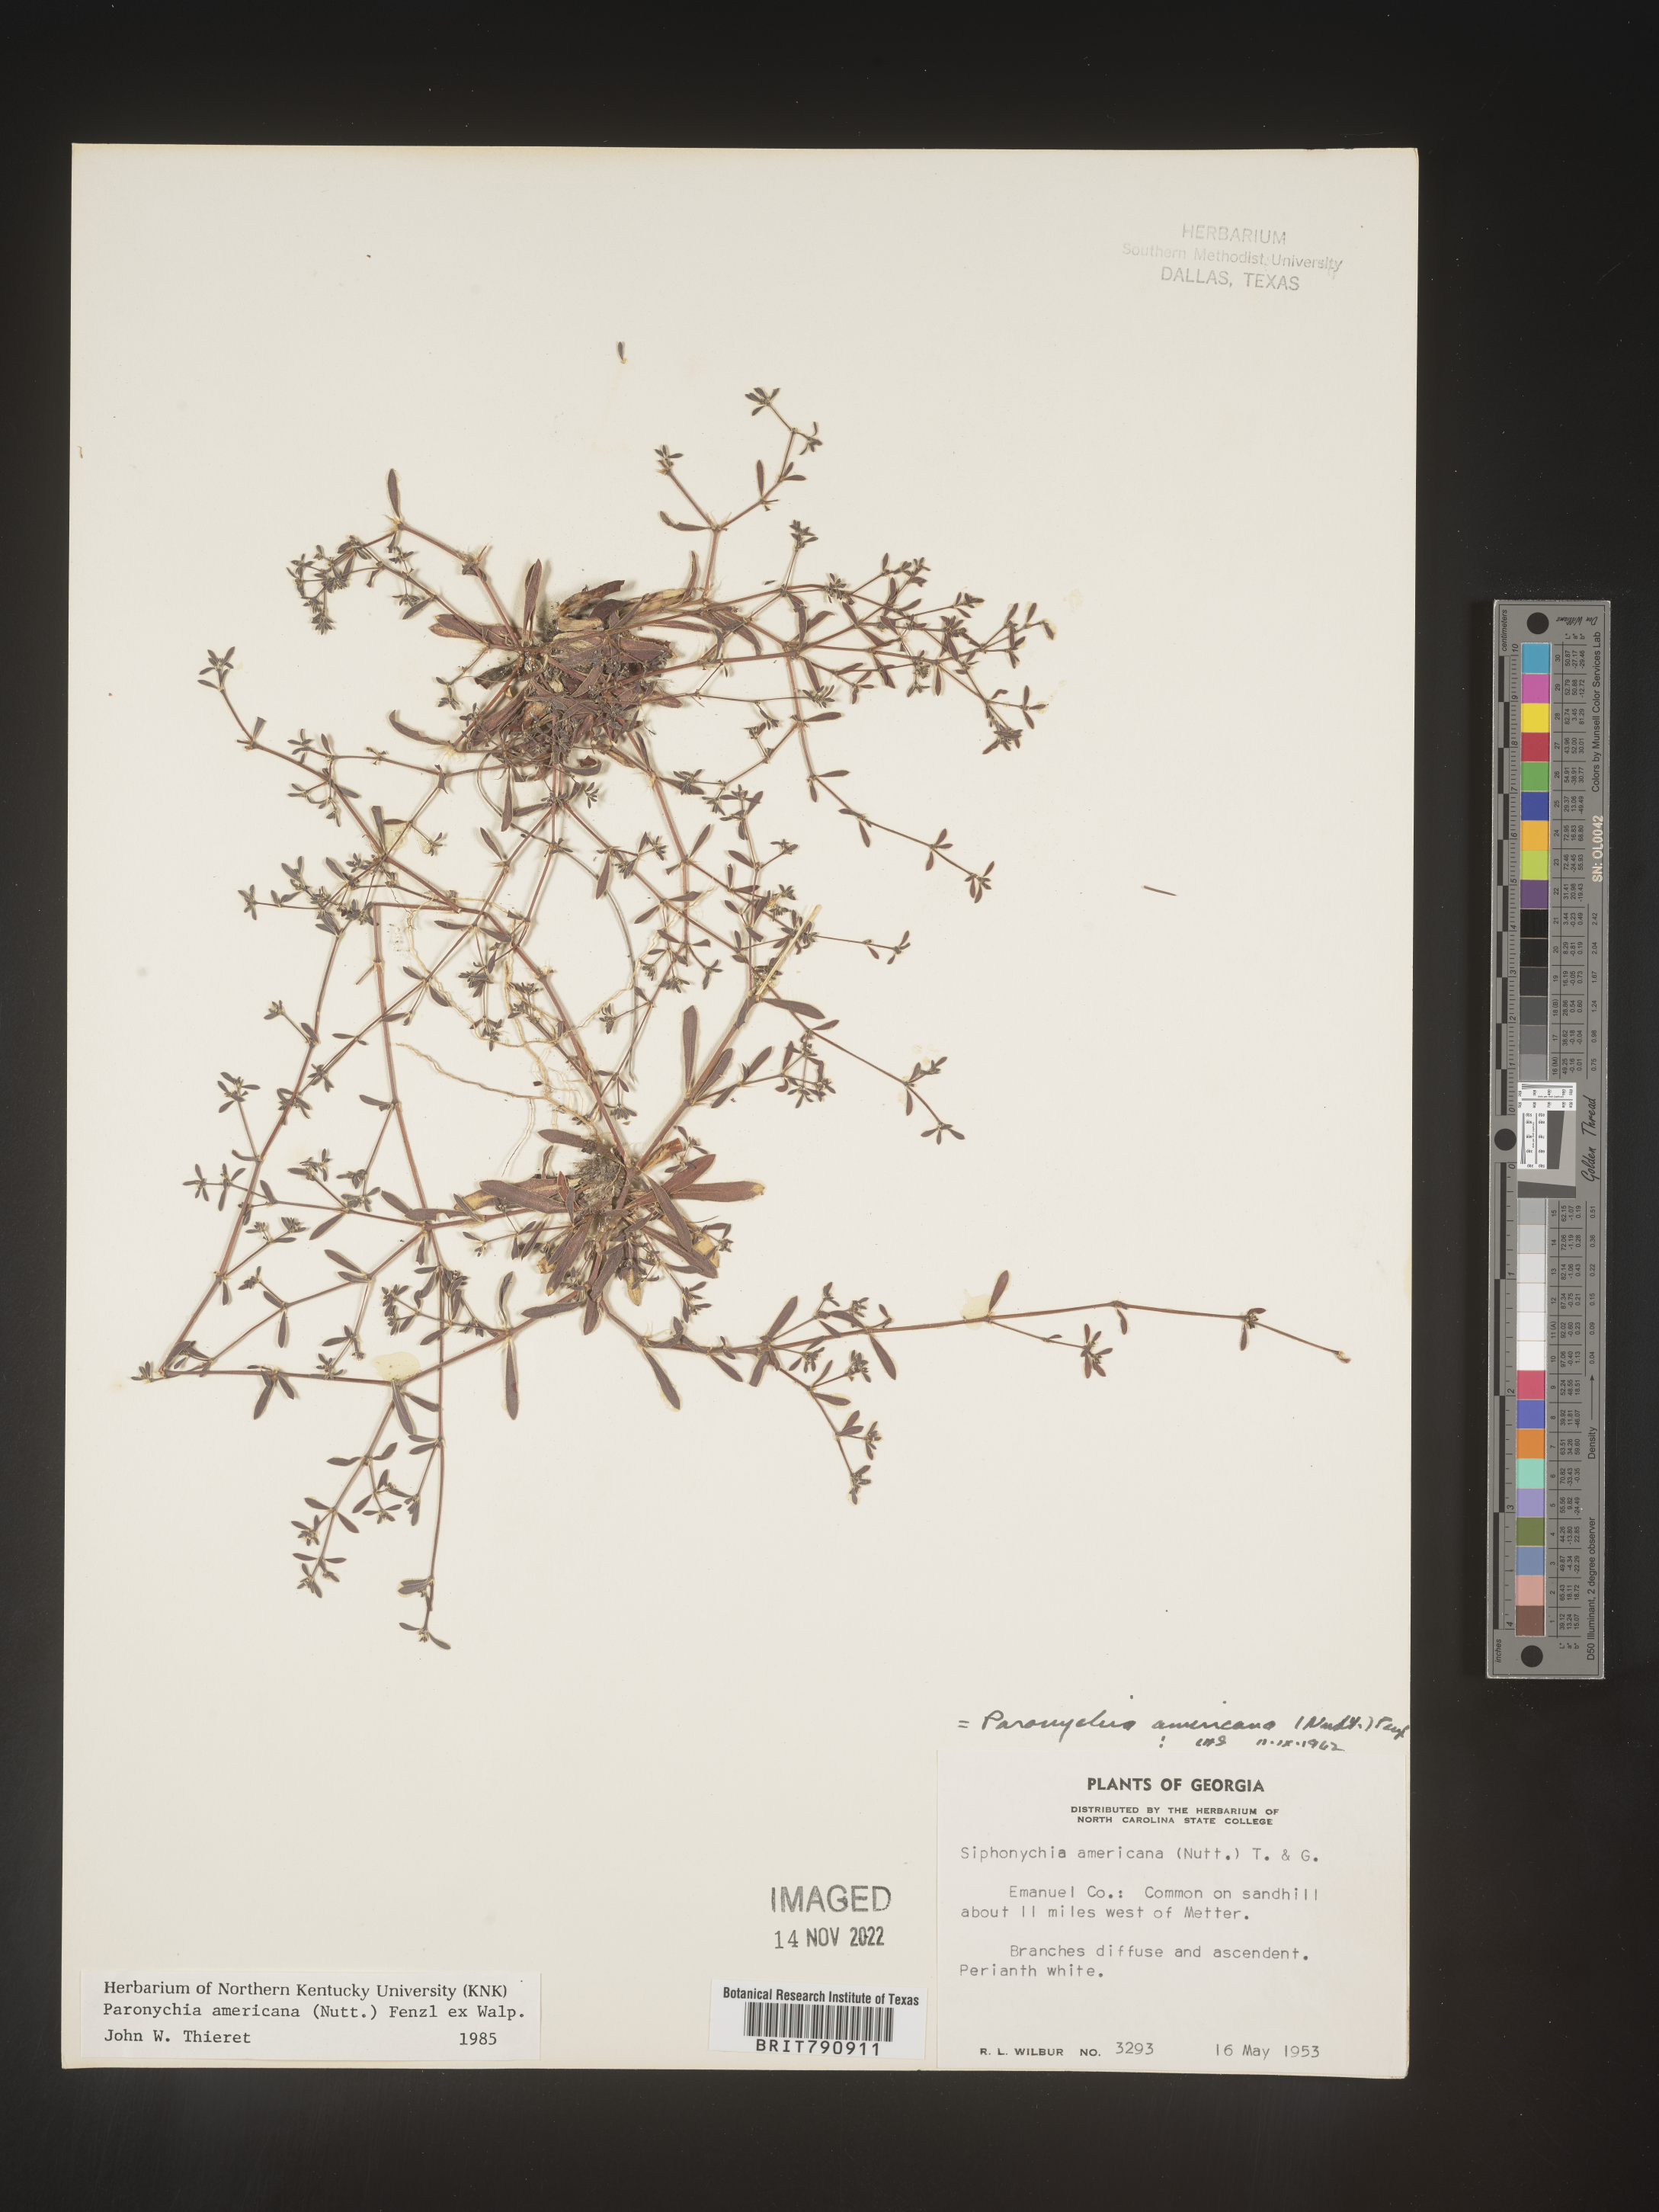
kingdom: Plantae
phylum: Tracheophyta
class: Magnoliopsida
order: Caryophyllales
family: Caryophyllaceae
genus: Paronychia
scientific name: Paronychia americana
